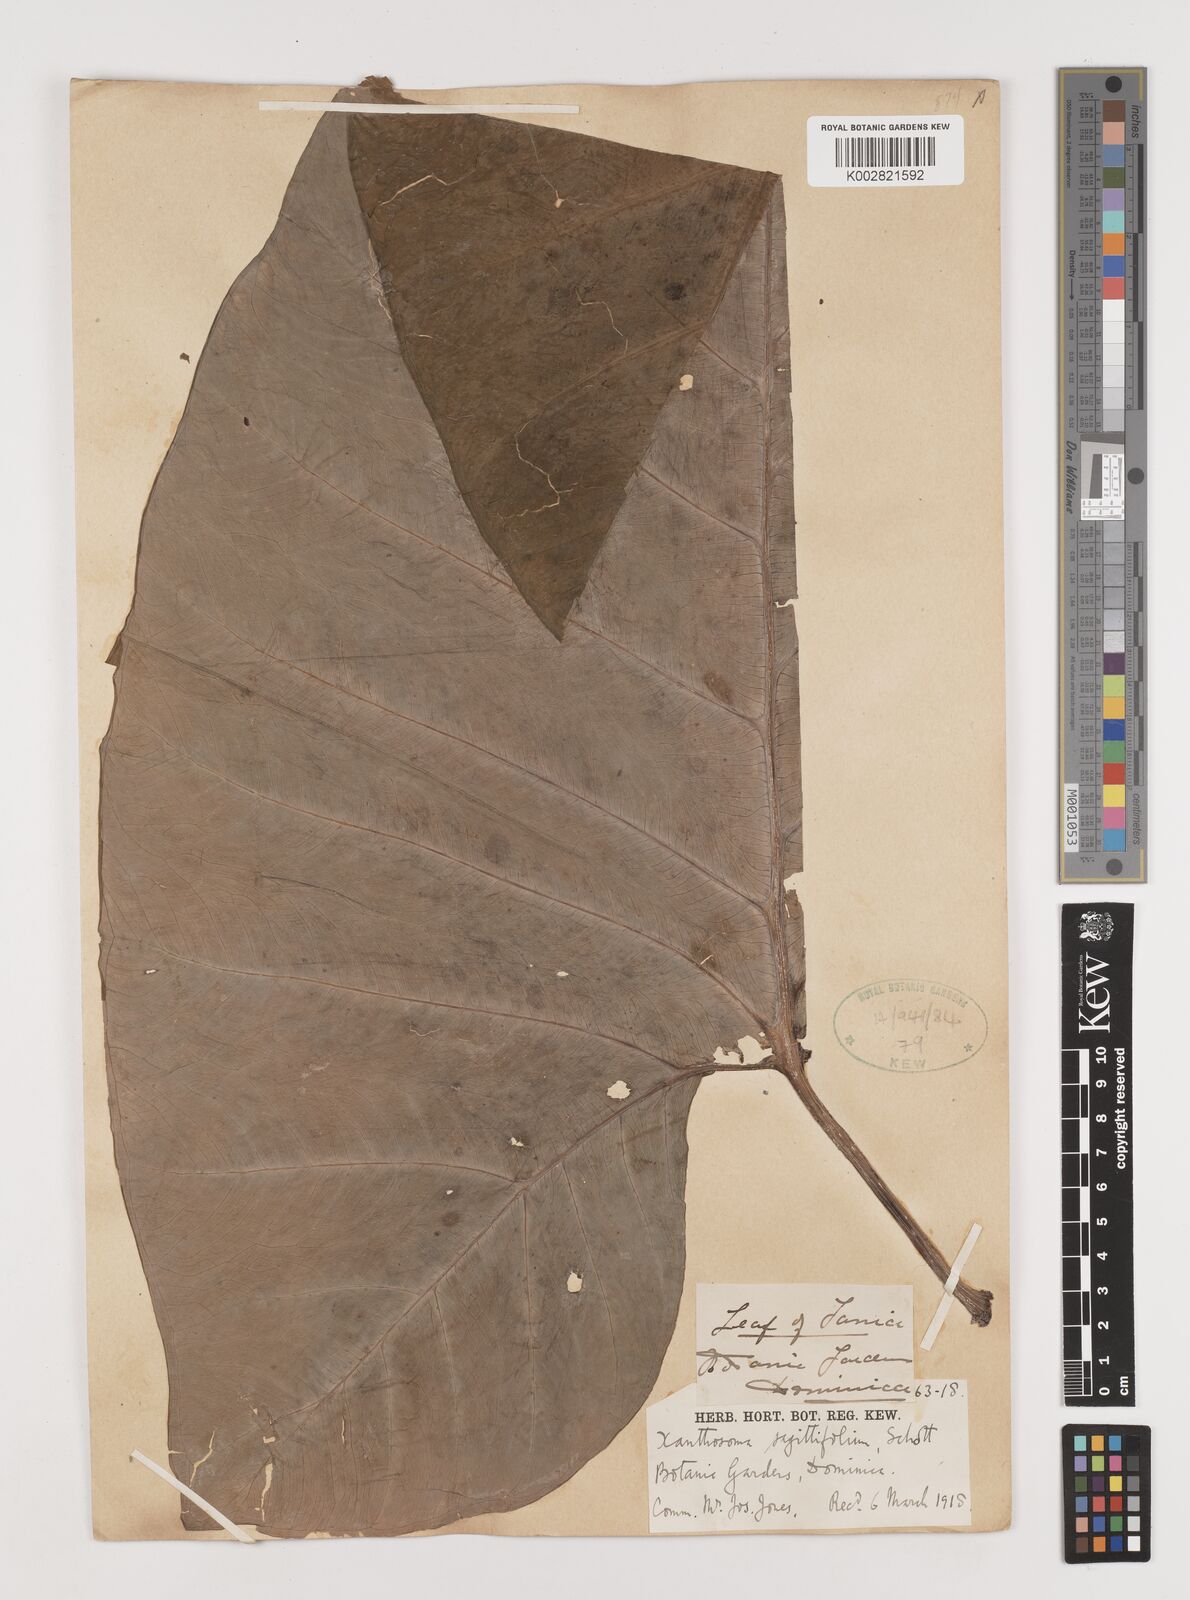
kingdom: Plantae
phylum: Tracheophyta
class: Liliopsida
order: Alismatales
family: Araceae
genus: Xanthosoma
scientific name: Xanthosoma sagittifolium
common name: Arrowleaf elephant's ear
